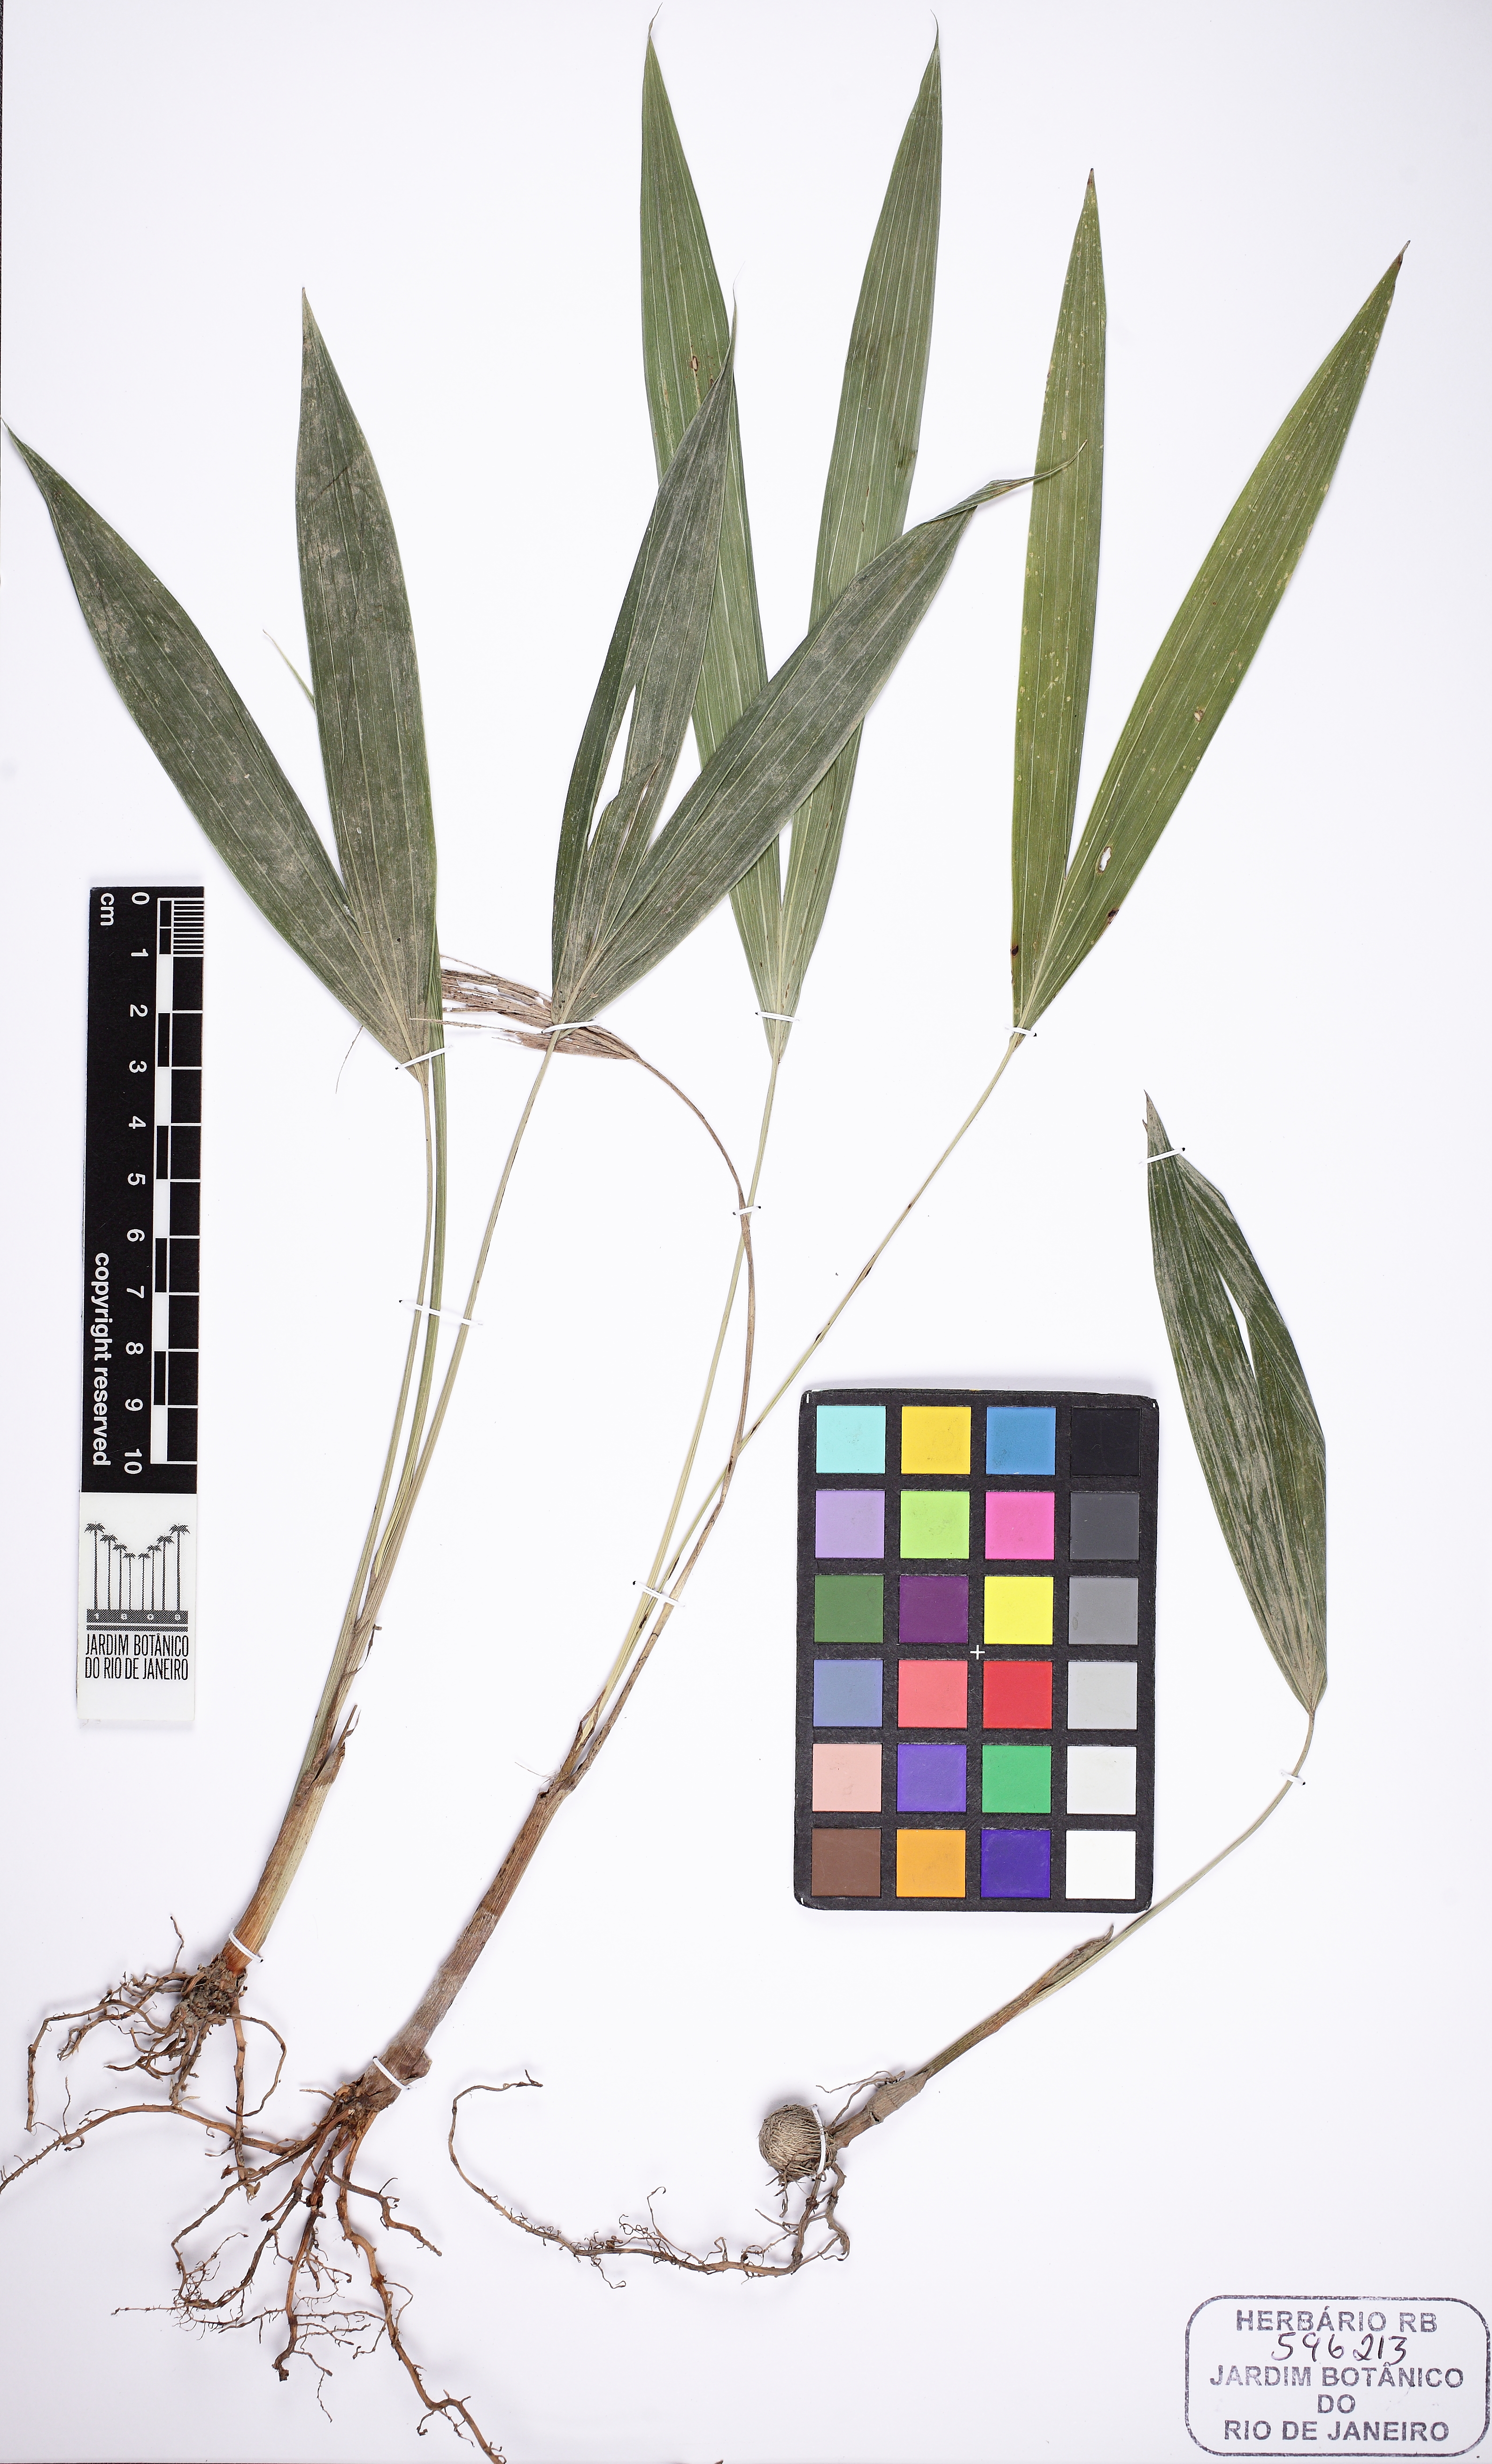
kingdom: Plantae
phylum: Tracheophyta
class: Liliopsida
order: Arecales
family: Arecaceae
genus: Euterpe
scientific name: Euterpe oleracea
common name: Assai palm
